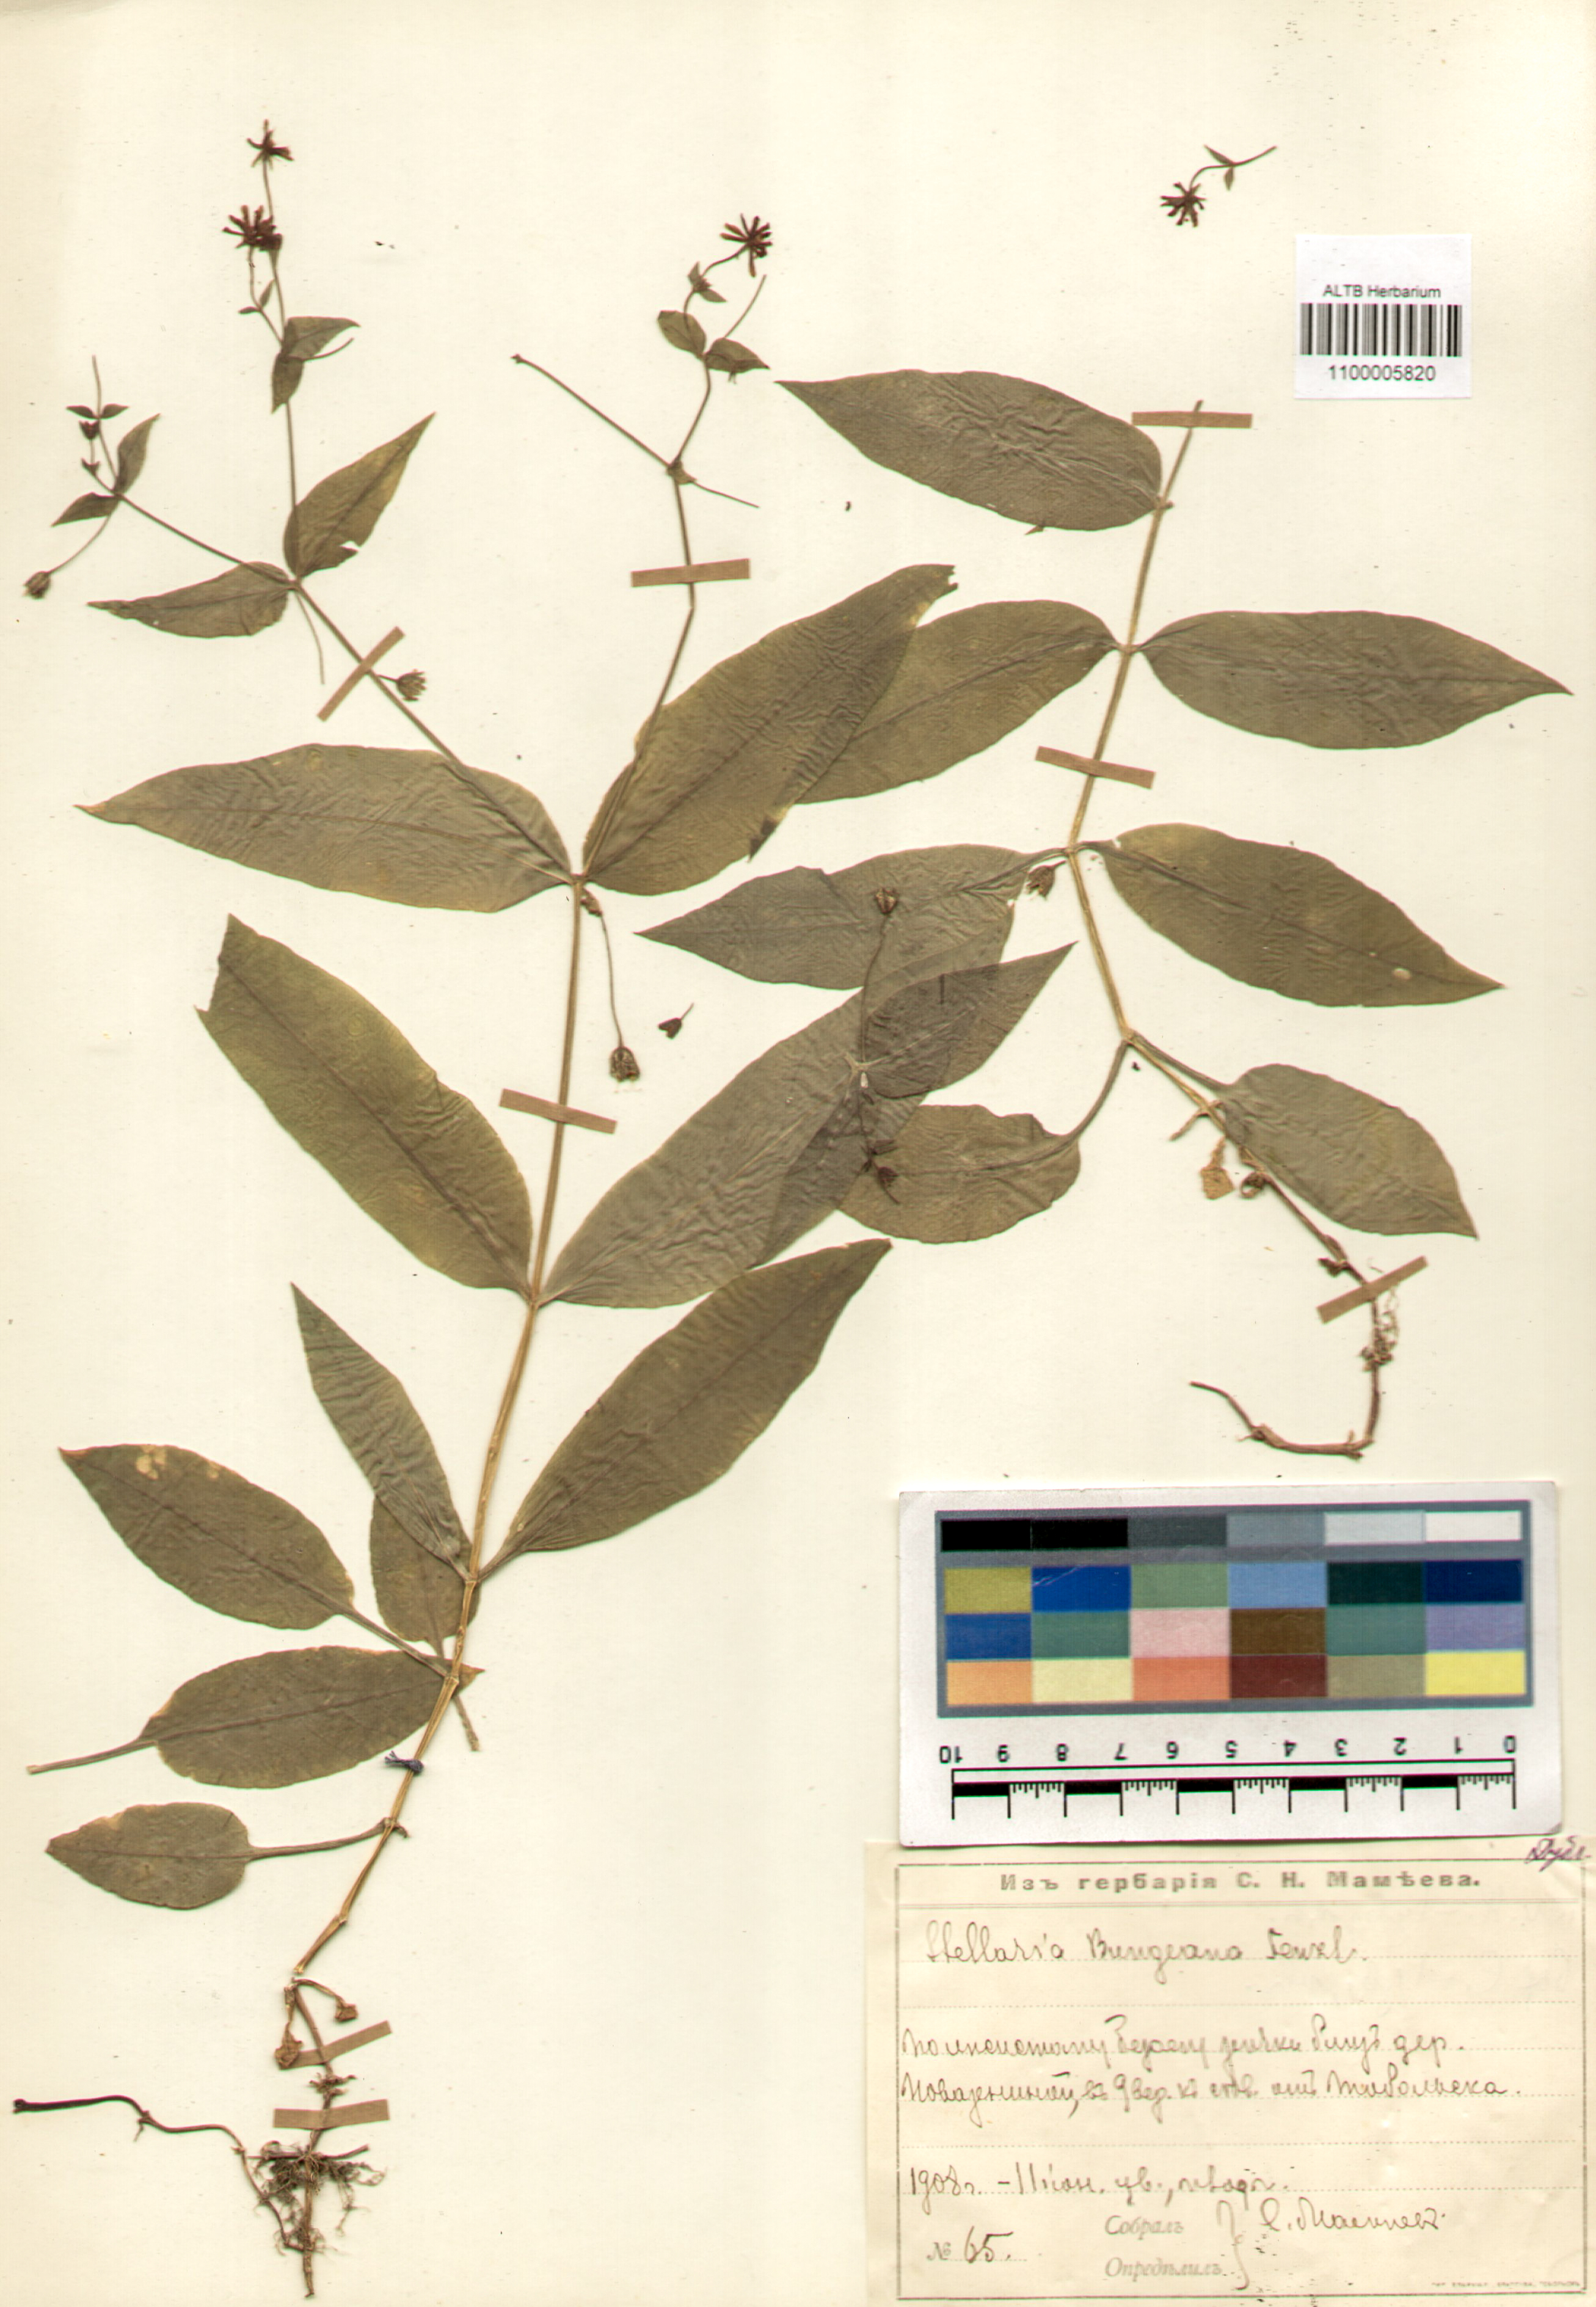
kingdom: Plantae
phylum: Tracheophyta
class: Magnoliopsida
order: Caryophyllales
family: Caryophyllaceae
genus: Stellaria
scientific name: Stellaria bungeana
